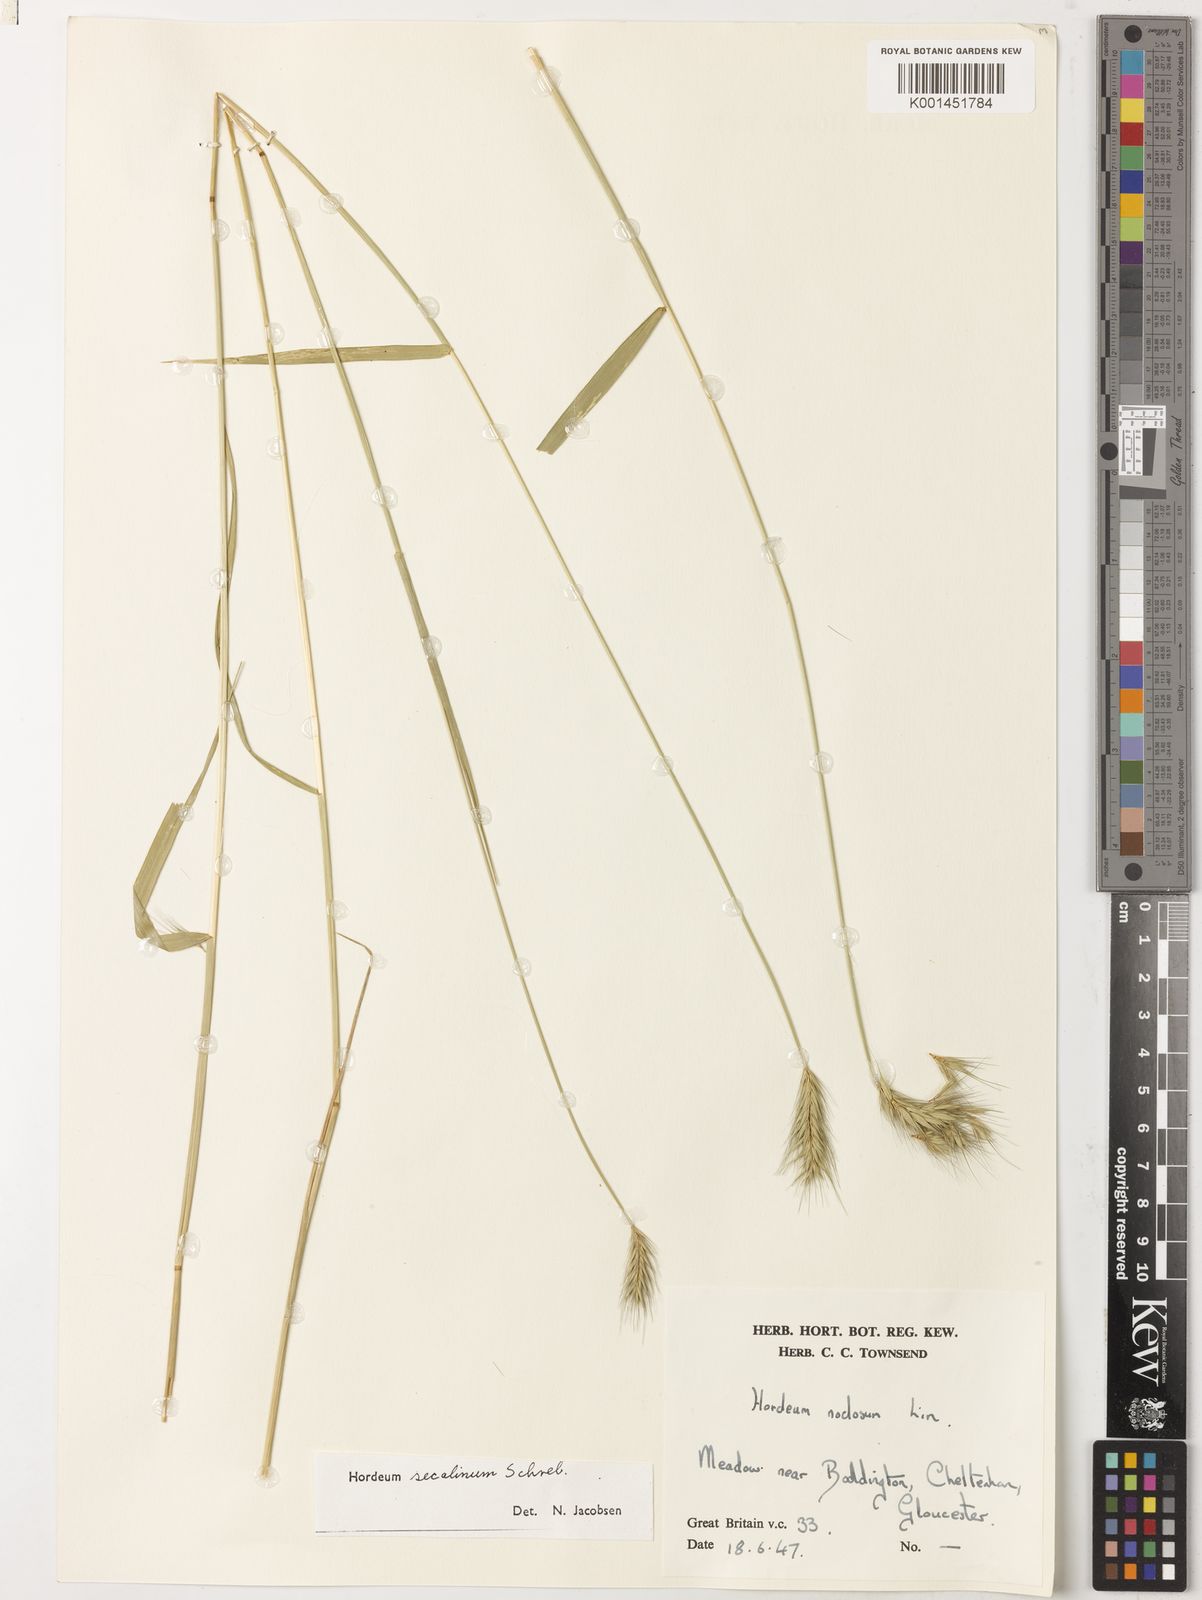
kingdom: Plantae
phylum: Tracheophyta
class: Liliopsida
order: Poales
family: Poaceae
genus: Hordeum
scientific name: Hordeum secalinum
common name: Meadow barley
